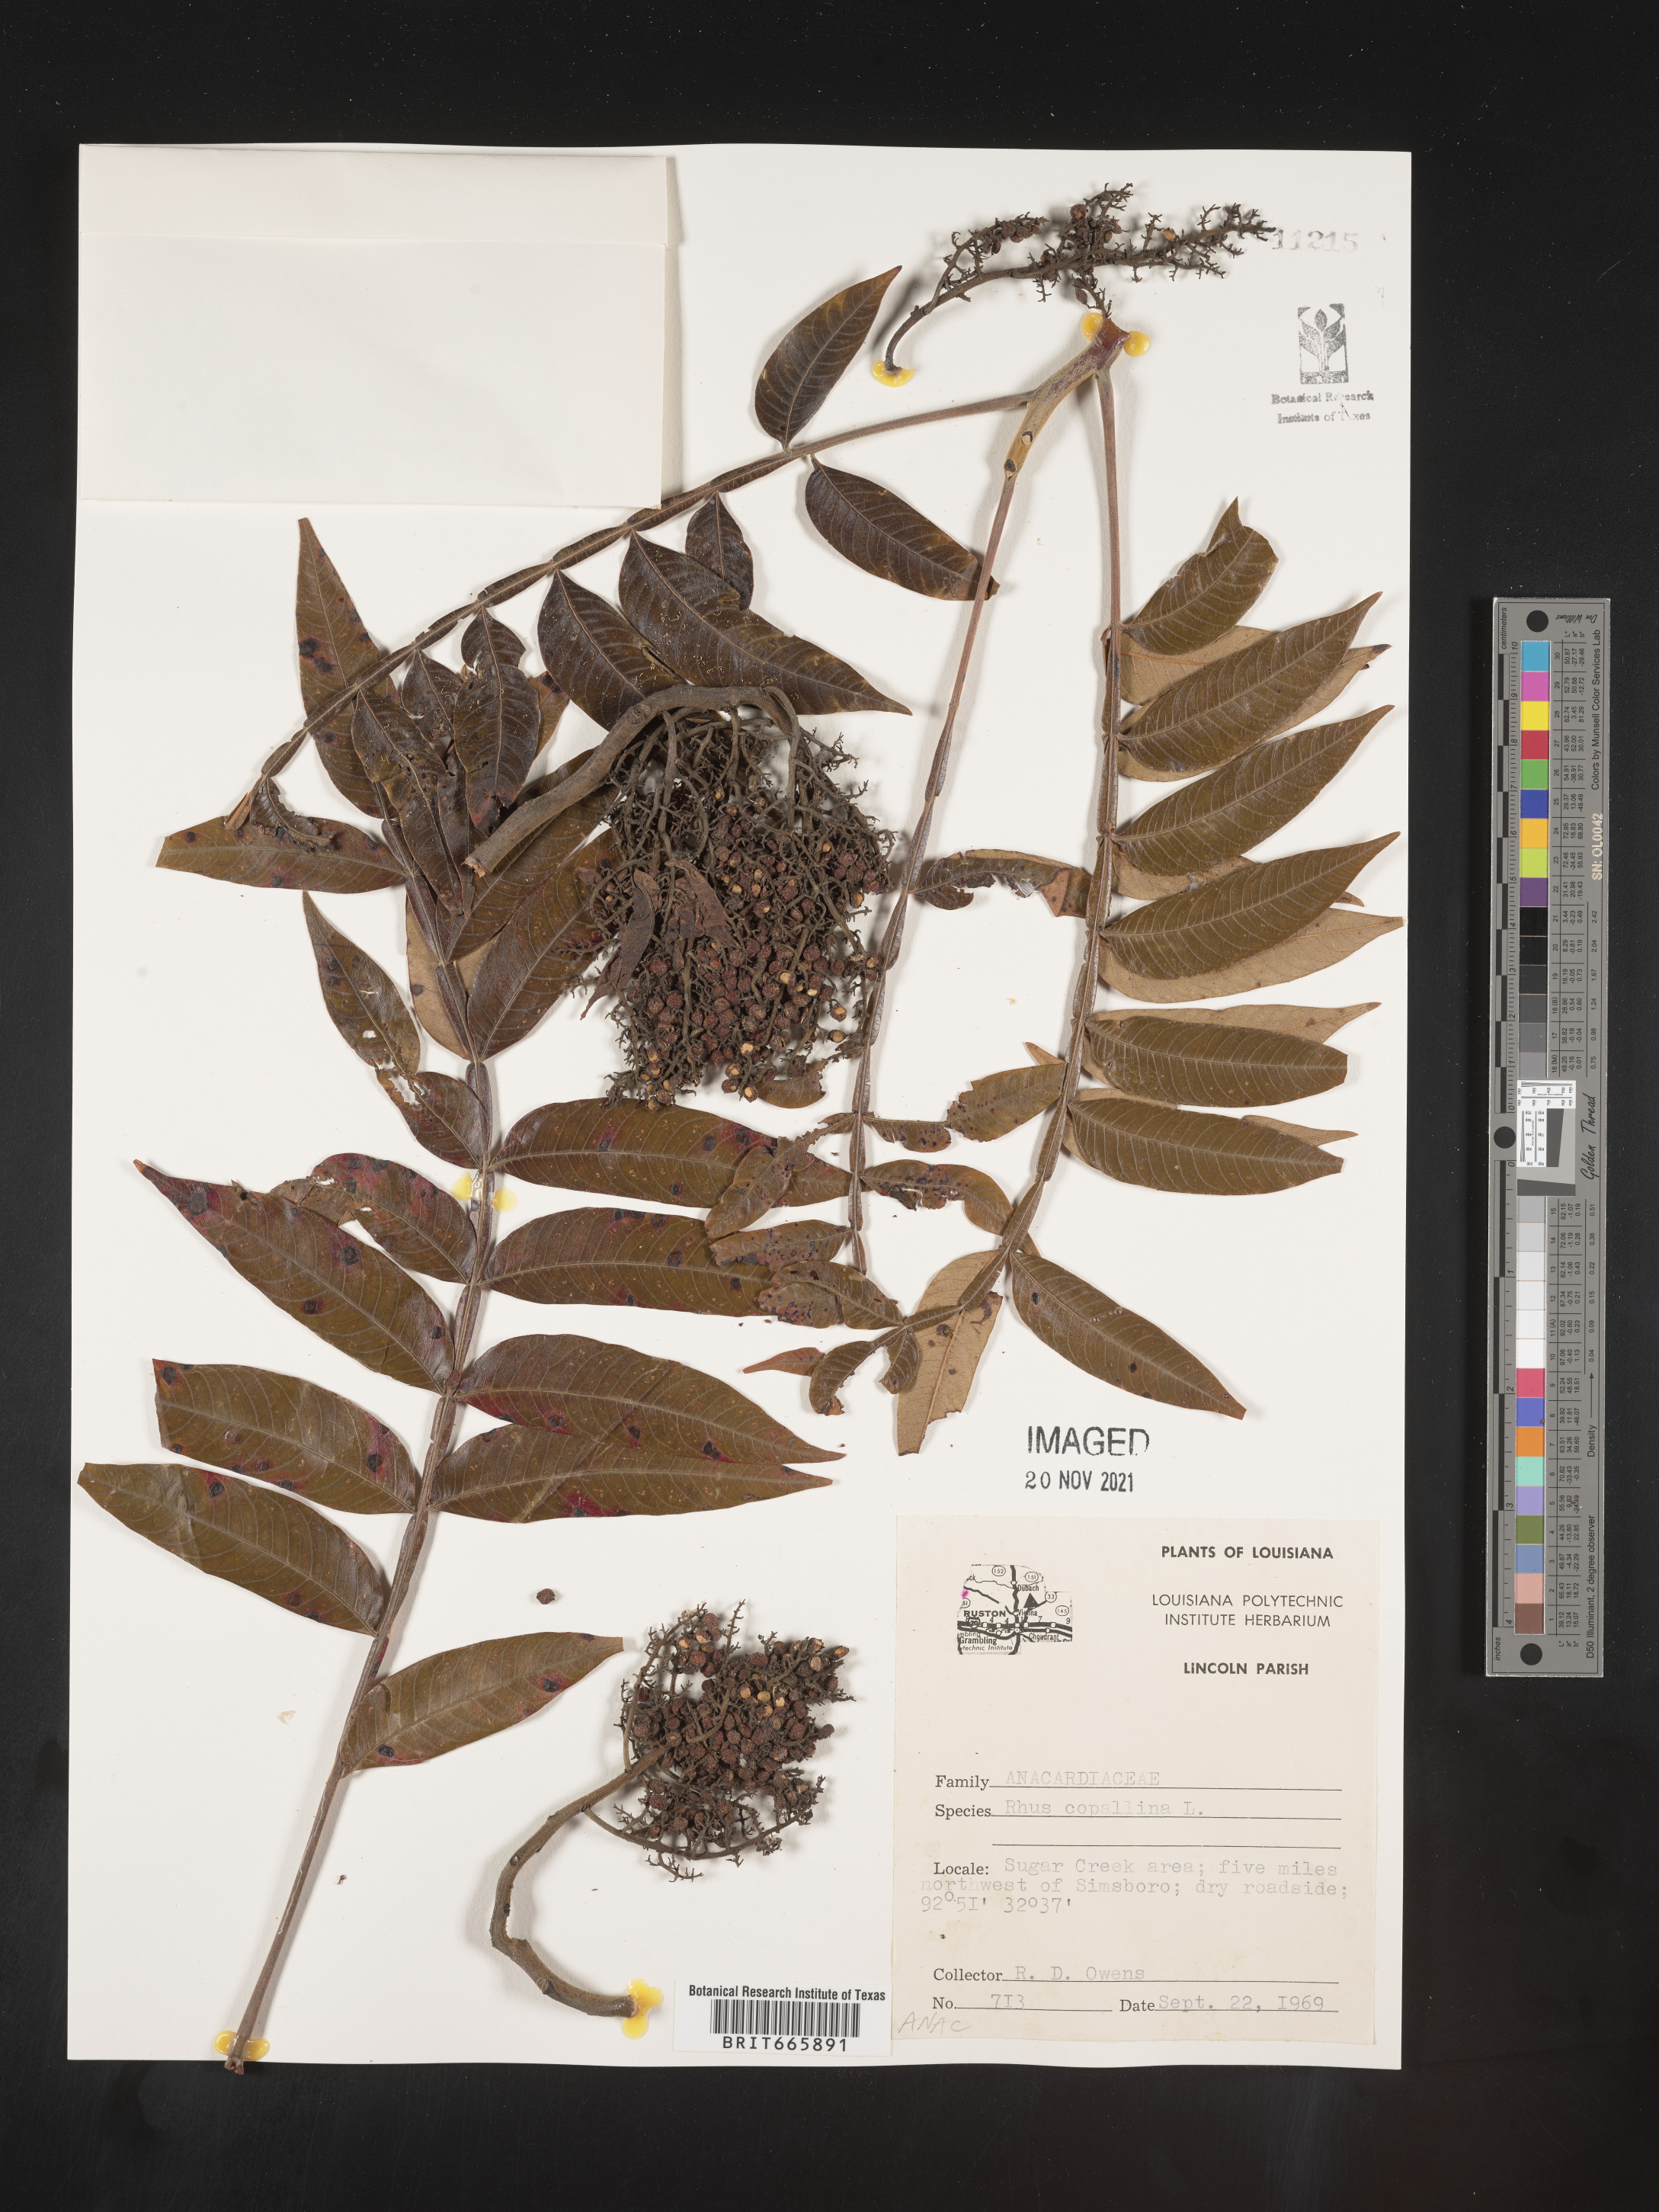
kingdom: Plantae
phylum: Tracheophyta
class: Magnoliopsida
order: Sapindales
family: Anacardiaceae
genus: Rhus
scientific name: Rhus copallina
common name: Shining sumac
